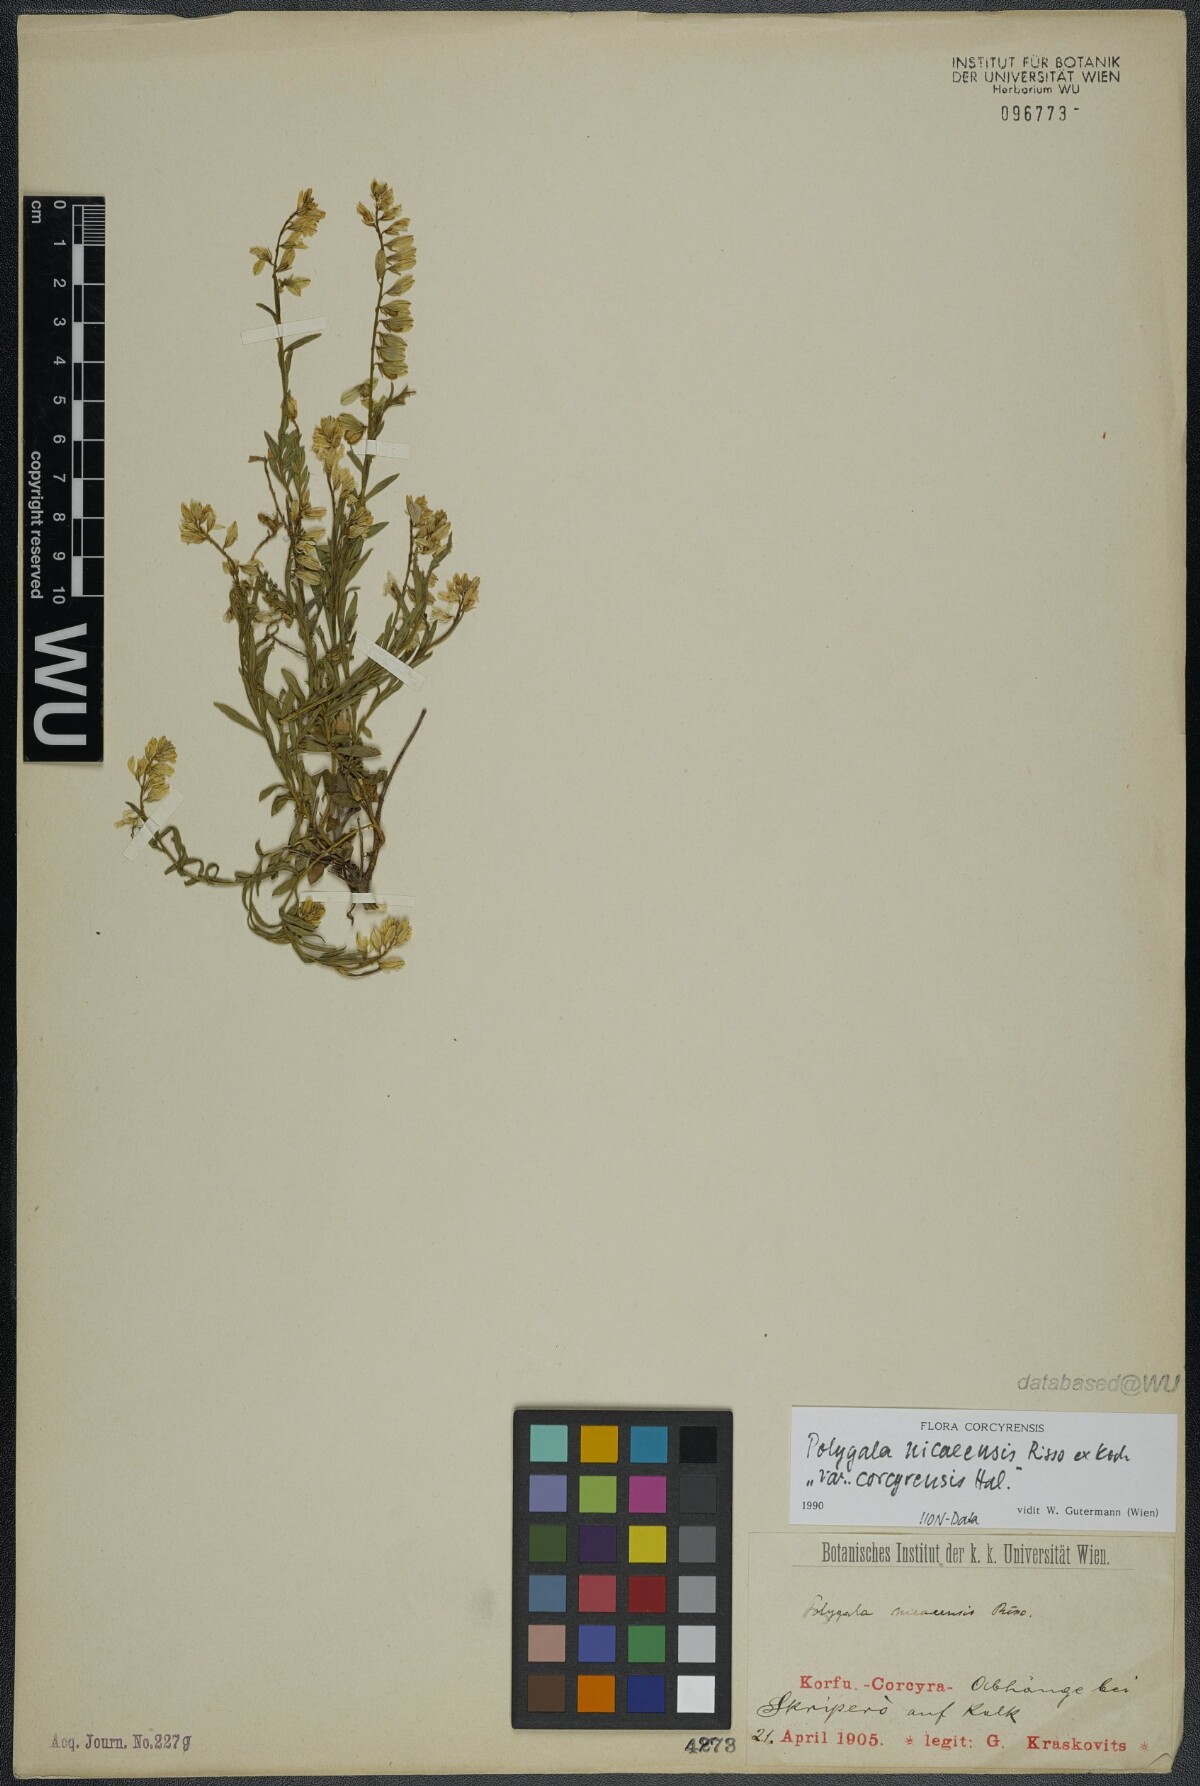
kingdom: Plantae
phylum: Tracheophyta
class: Magnoliopsida
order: Fabales
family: Polygalaceae
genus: Polygala
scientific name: Polygala nicaeensis
